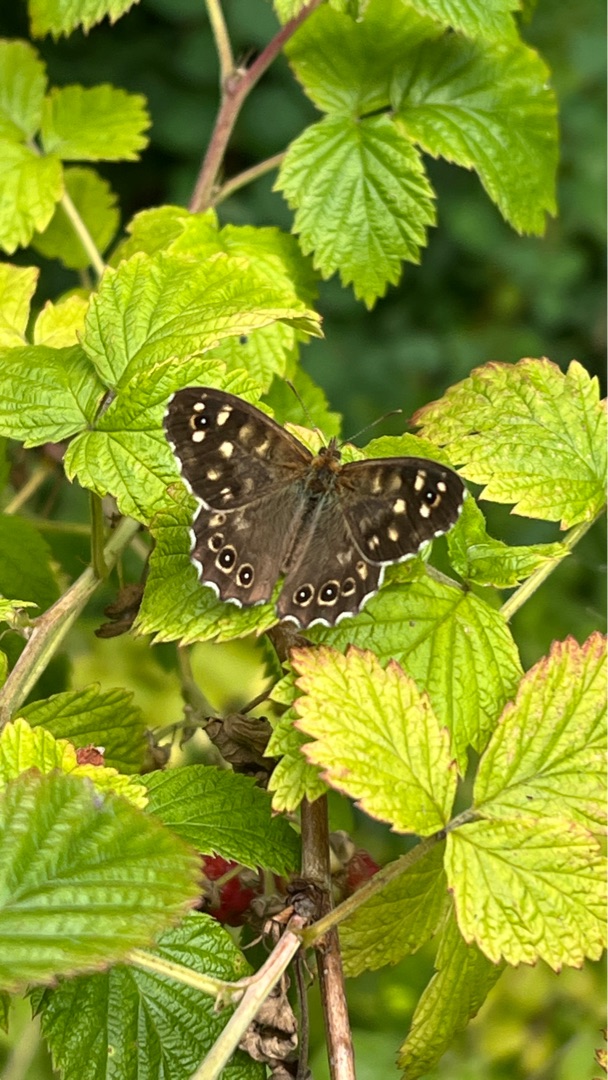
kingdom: Animalia
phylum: Arthropoda
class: Insecta
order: Lepidoptera
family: Nymphalidae
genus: Pararge
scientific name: Pararge aegeria
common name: Skovrandøje
